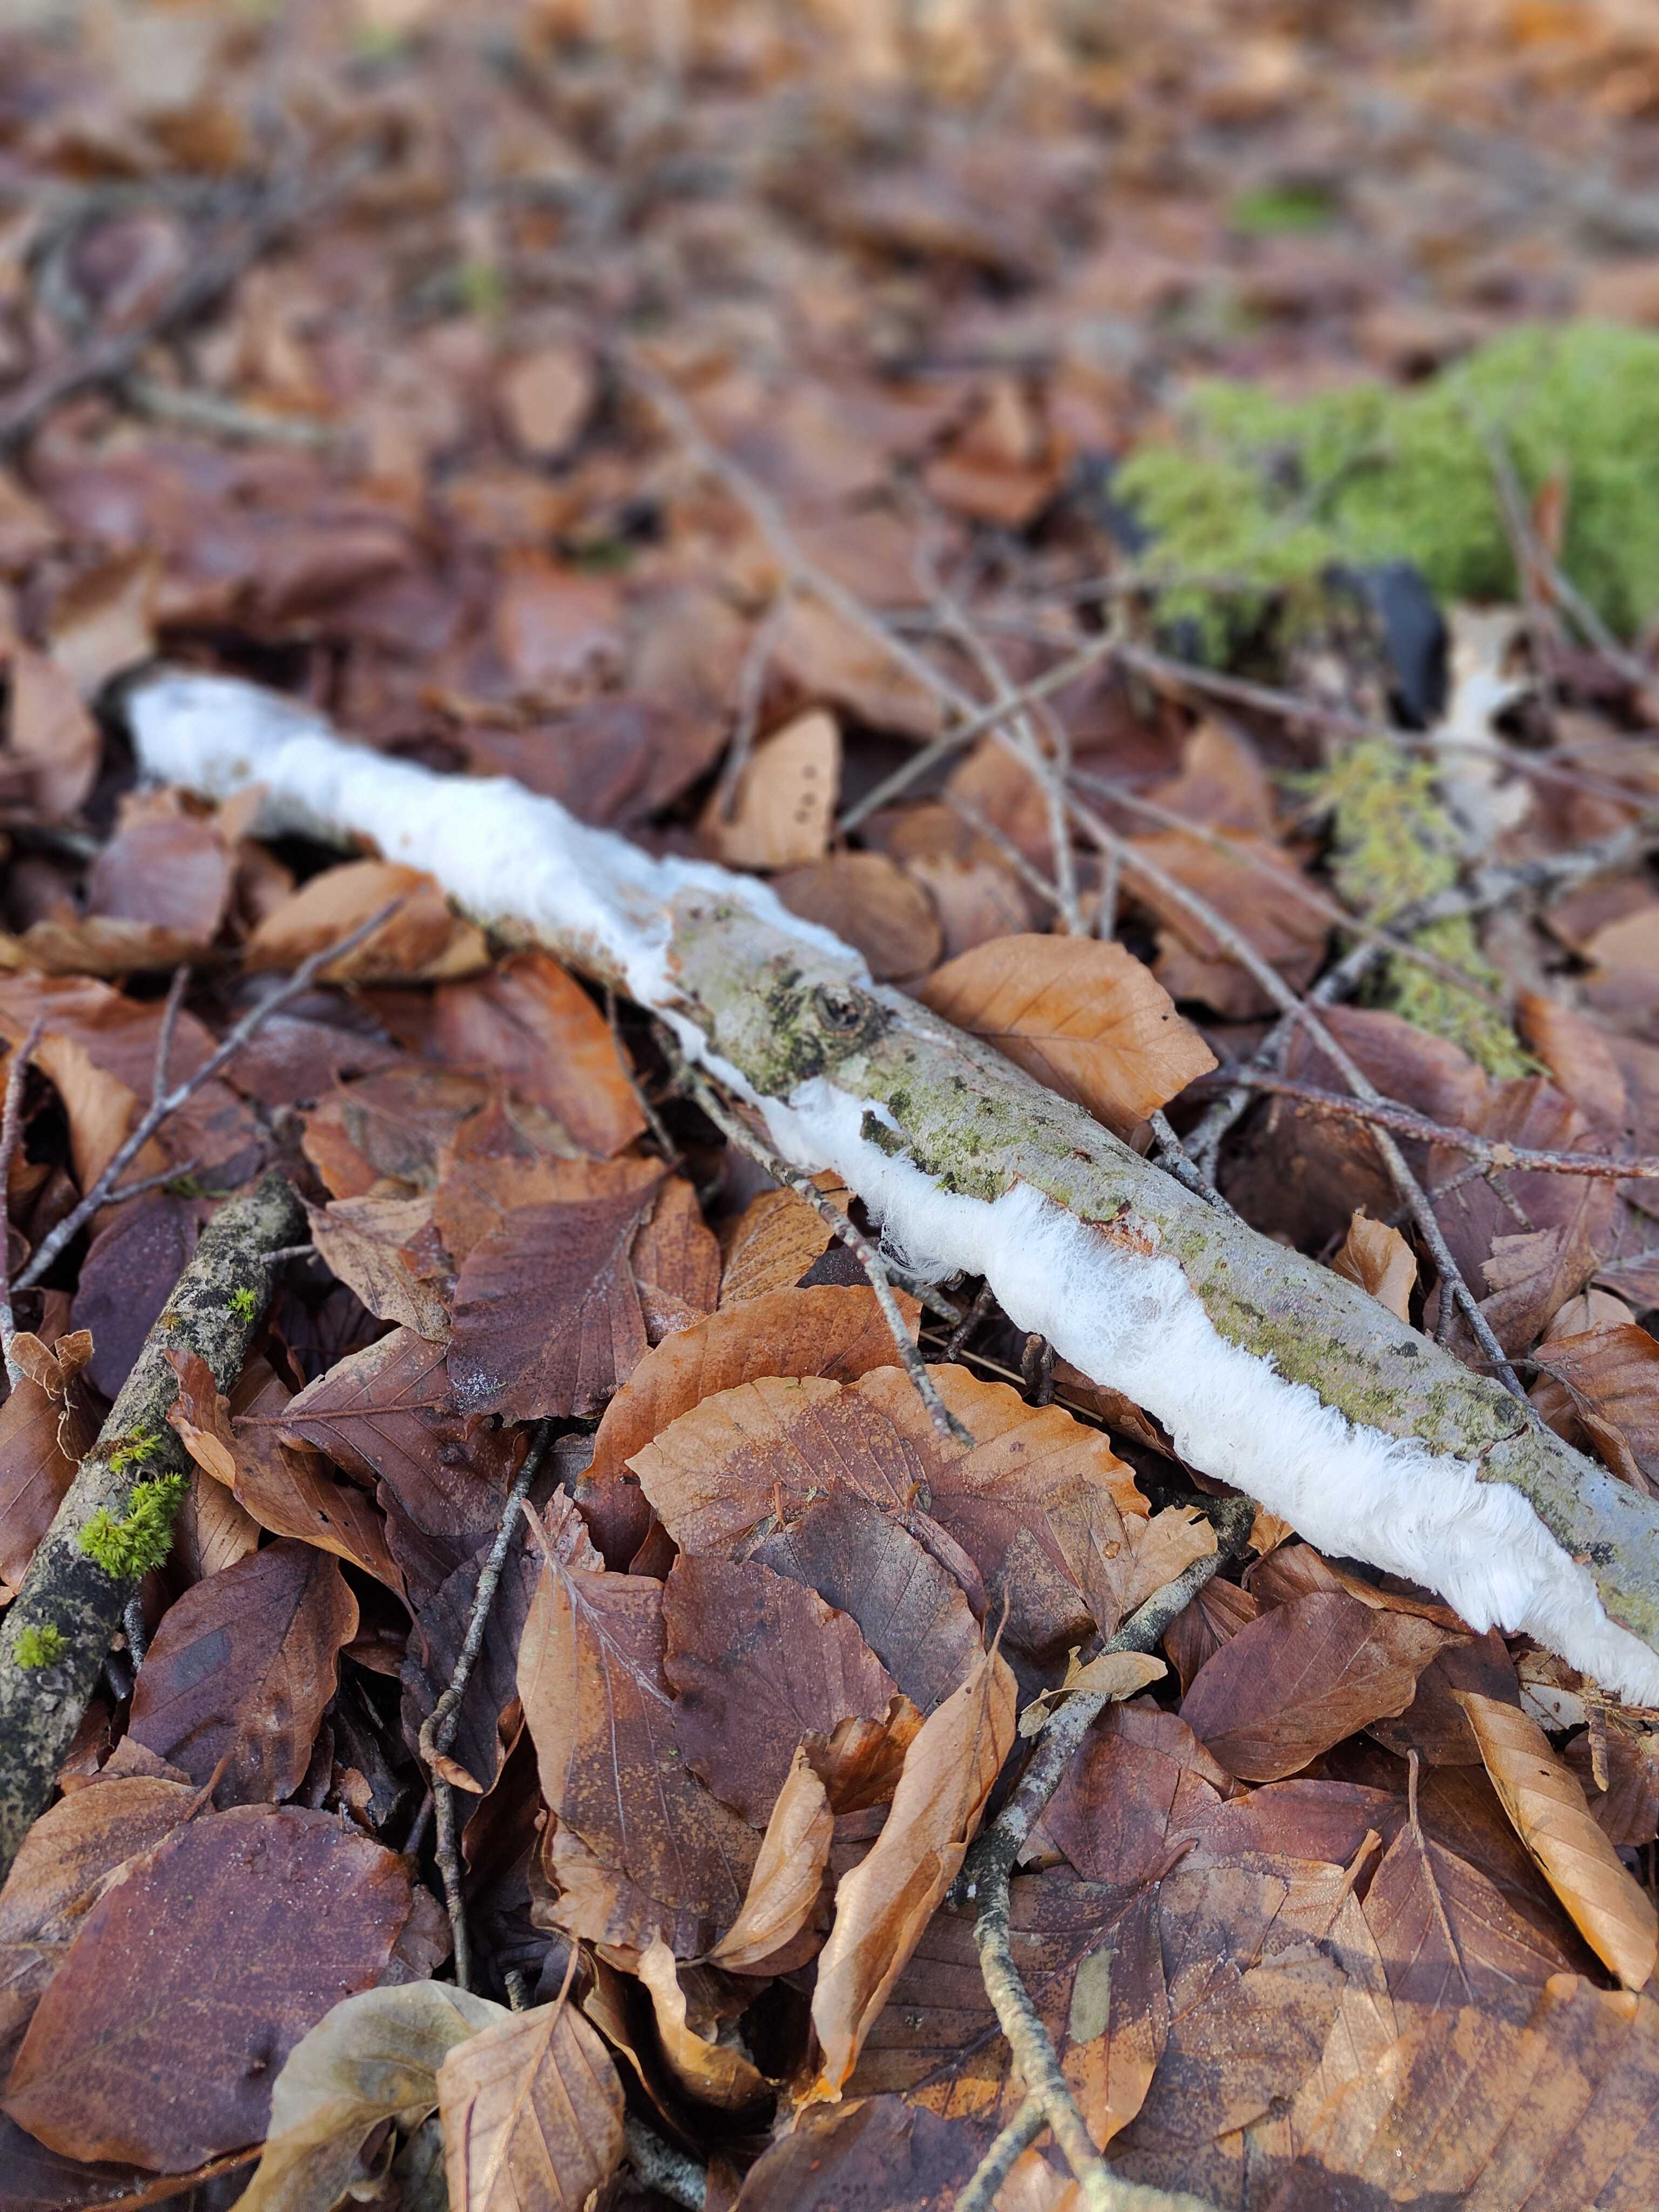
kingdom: Fungi
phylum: Basidiomycota
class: Tremellomycetes
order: Tremellales
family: Exidiaceae
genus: Exidiopsis
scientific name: Exidiopsis effusa
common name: smuk bævrehinde
